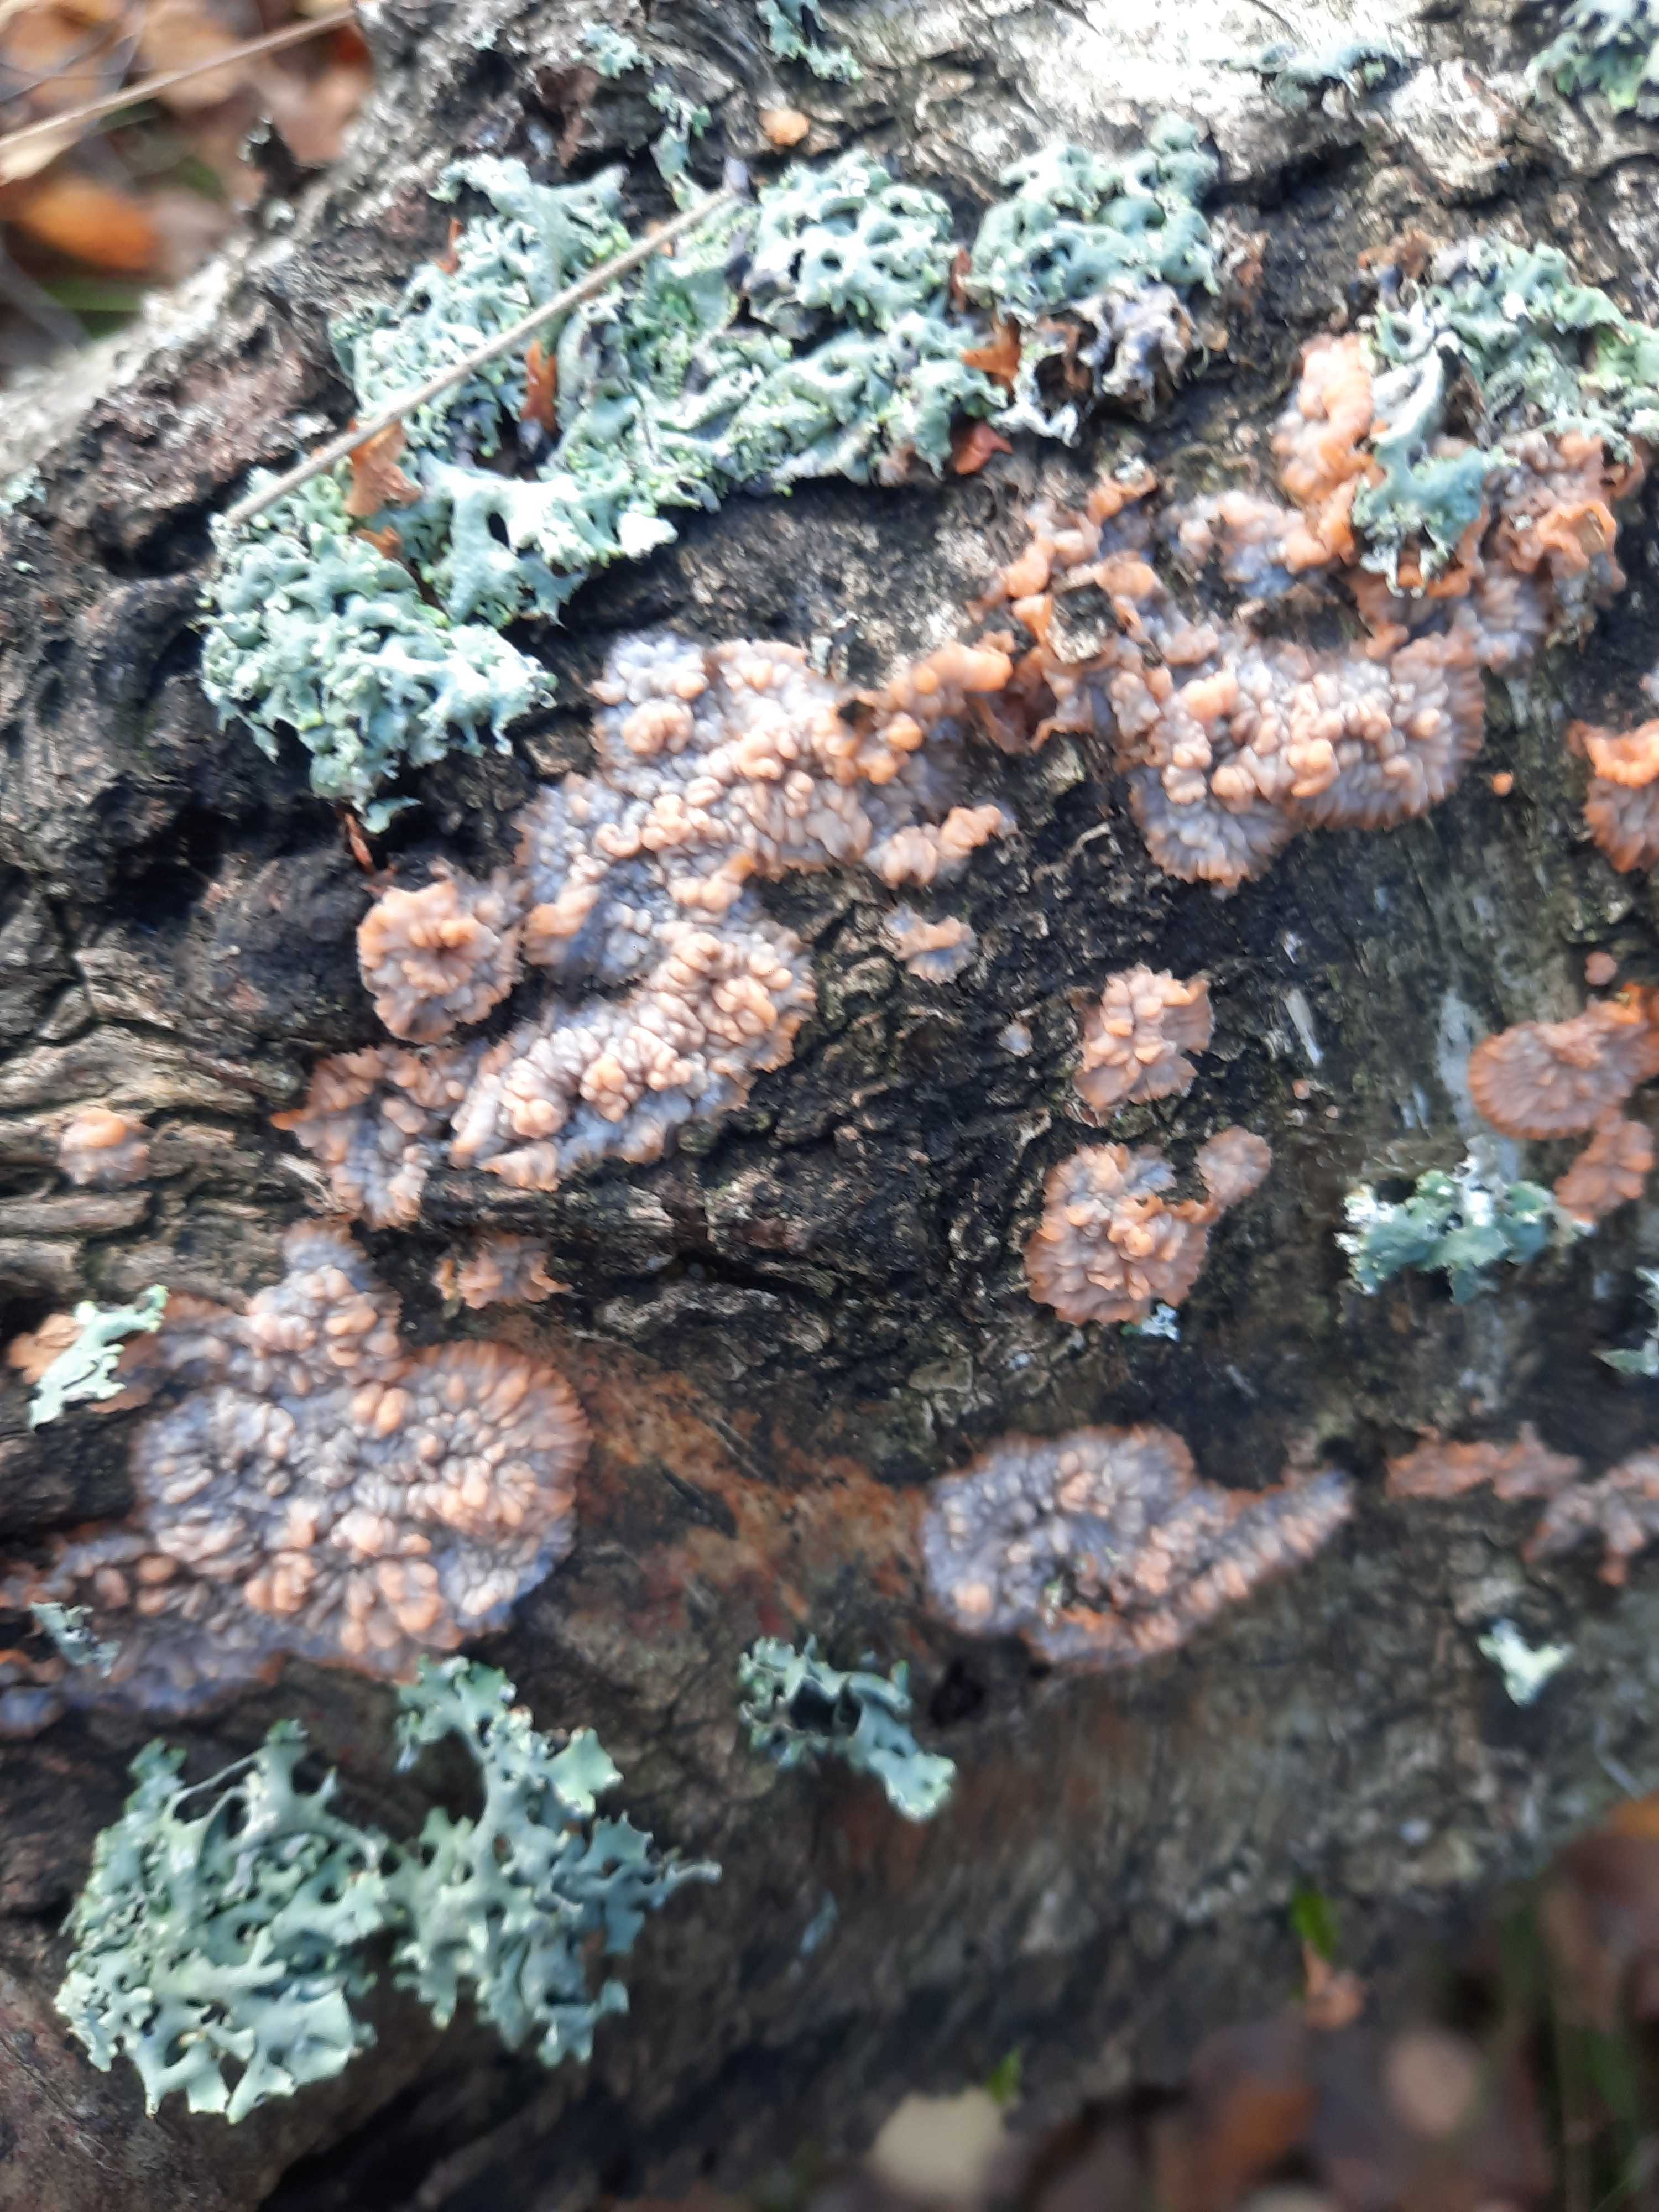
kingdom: Fungi
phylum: Basidiomycota
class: Agaricomycetes
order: Polyporales
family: Meruliaceae
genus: Phlebia
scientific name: Phlebia radiata
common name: stråle-åresvamp
